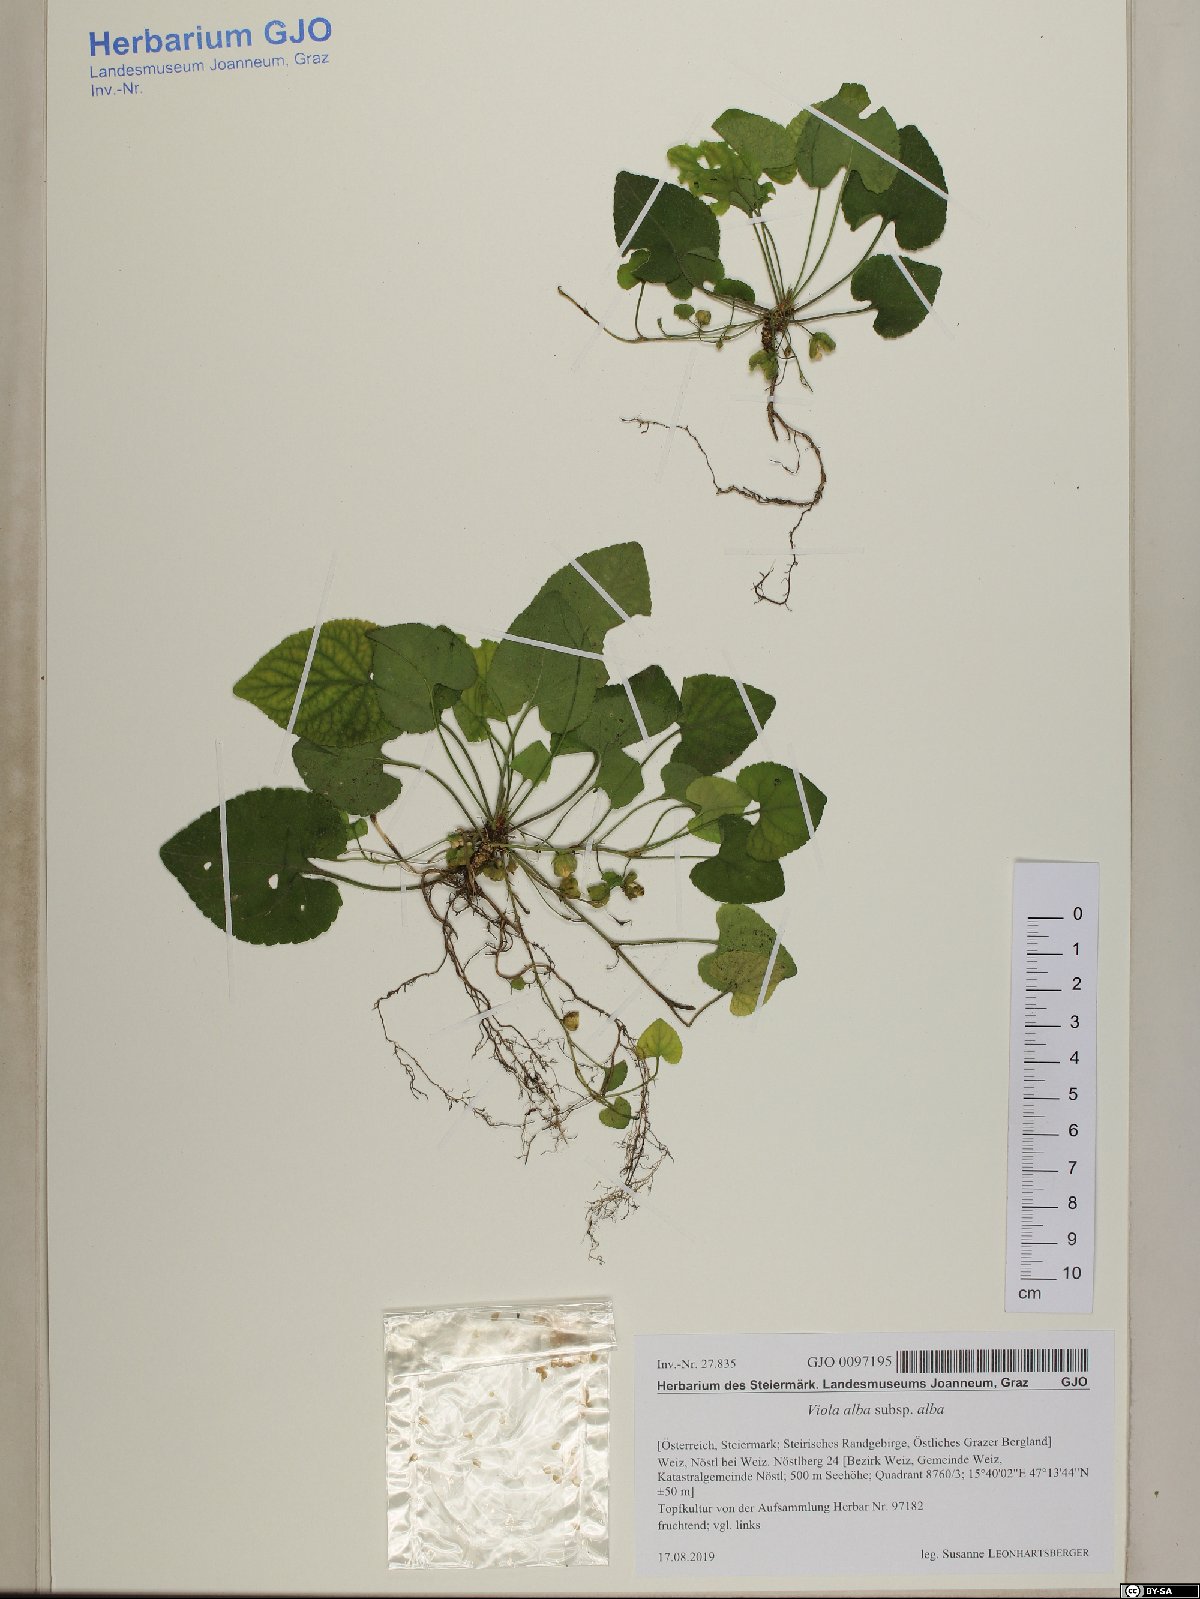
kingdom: Plantae
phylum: Tracheophyta
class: Magnoliopsida
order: Malpighiales
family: Violaceae
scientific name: Violaceae
